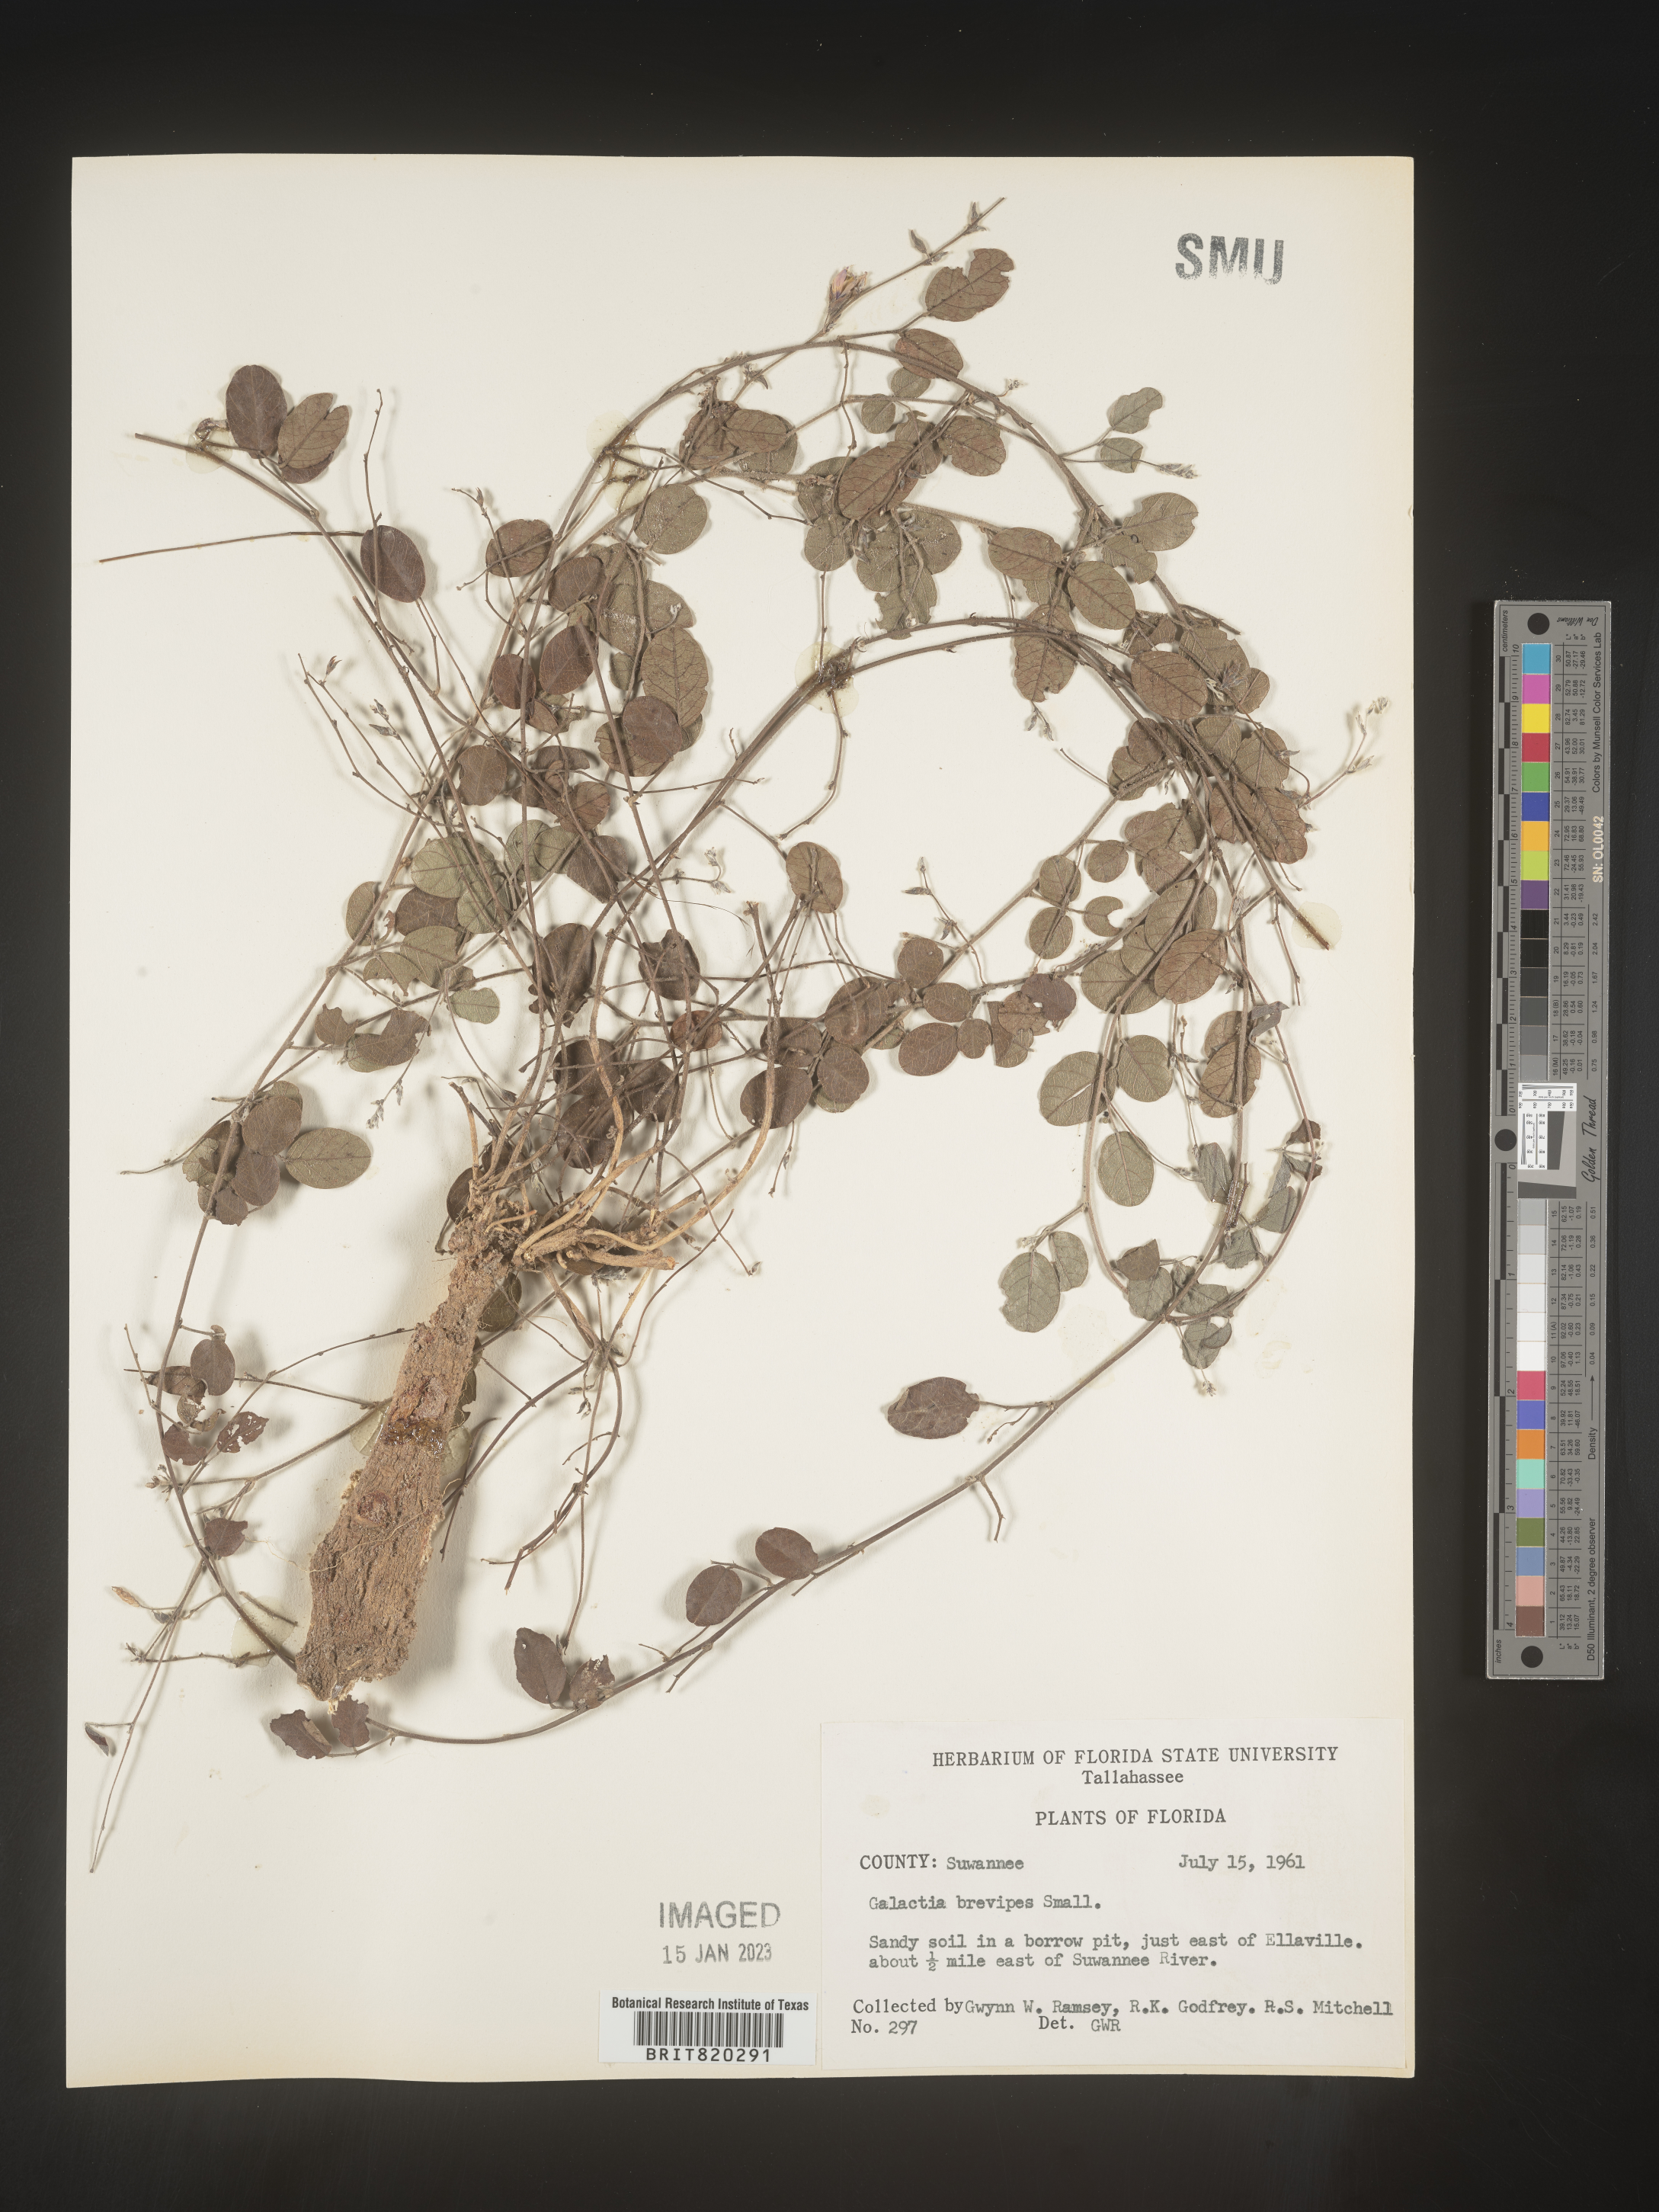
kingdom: Plantae
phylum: Tracheophyta
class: Magnoliopsida
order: Fabales
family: Fabaceae
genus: Galactia
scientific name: Galactia floridana
